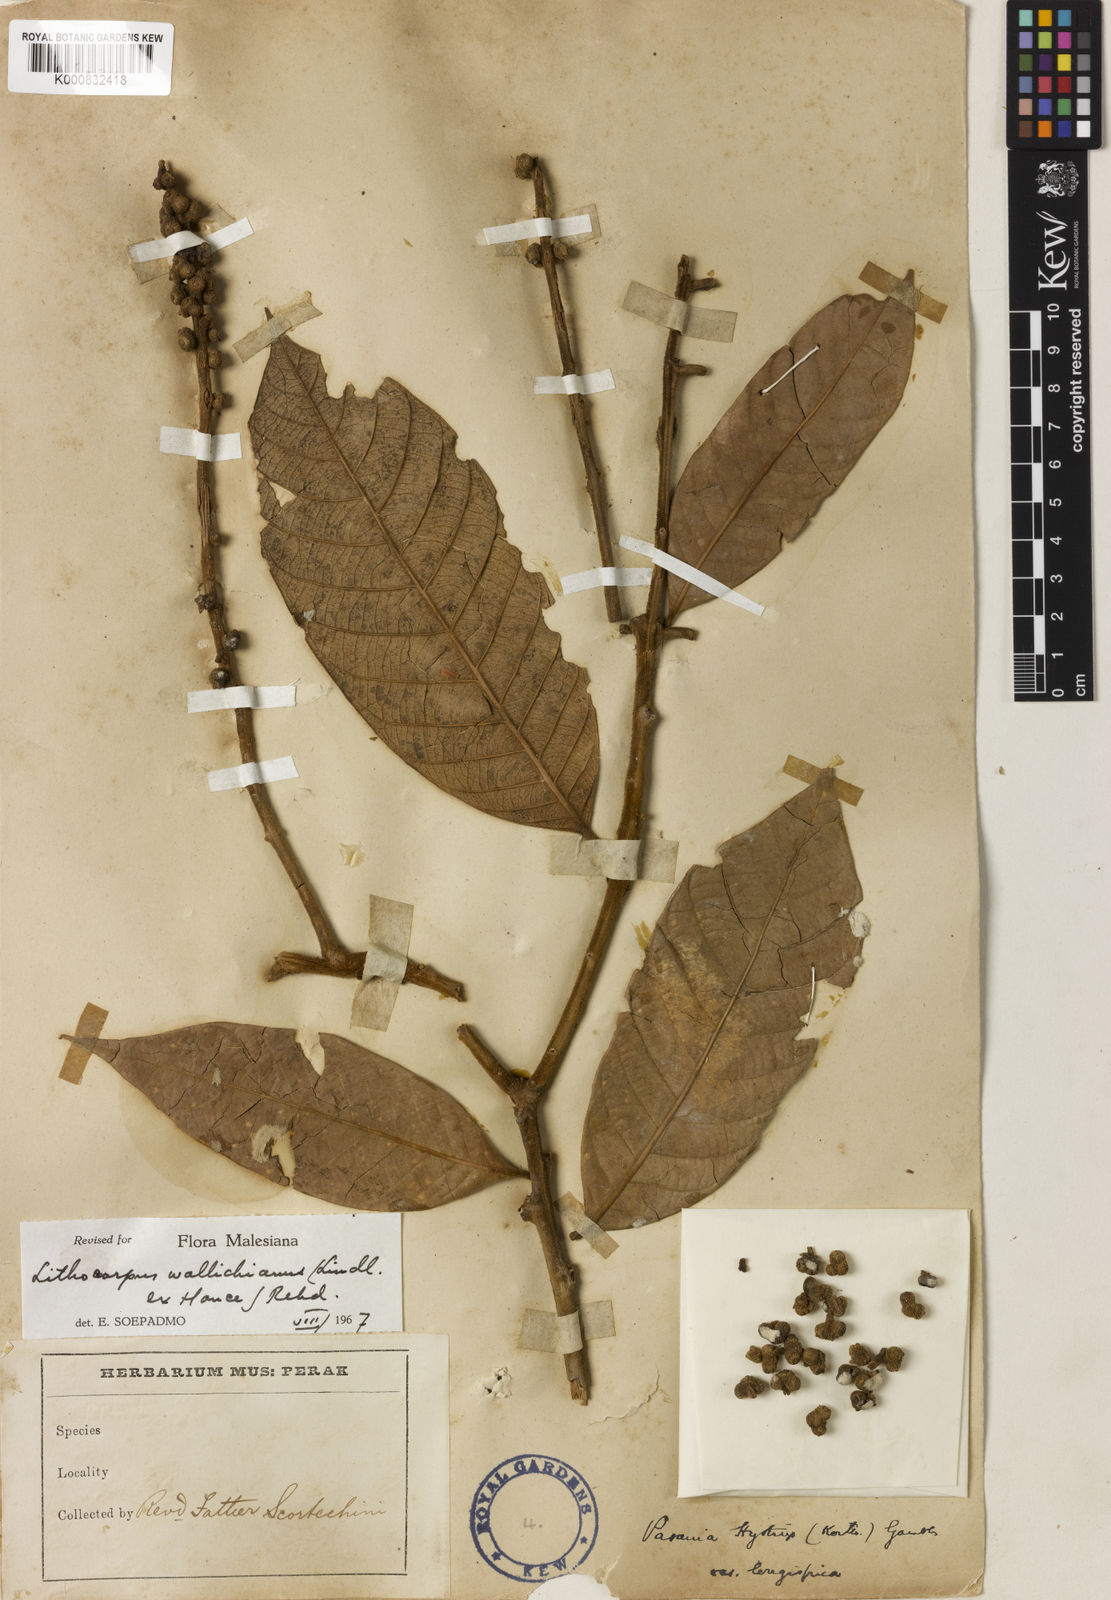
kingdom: Plantae
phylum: Tracheophyta
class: Magnoliopsida
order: Fagales
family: Fagaceae
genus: Lithocarpus
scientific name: Lithocarpus wallichianus
